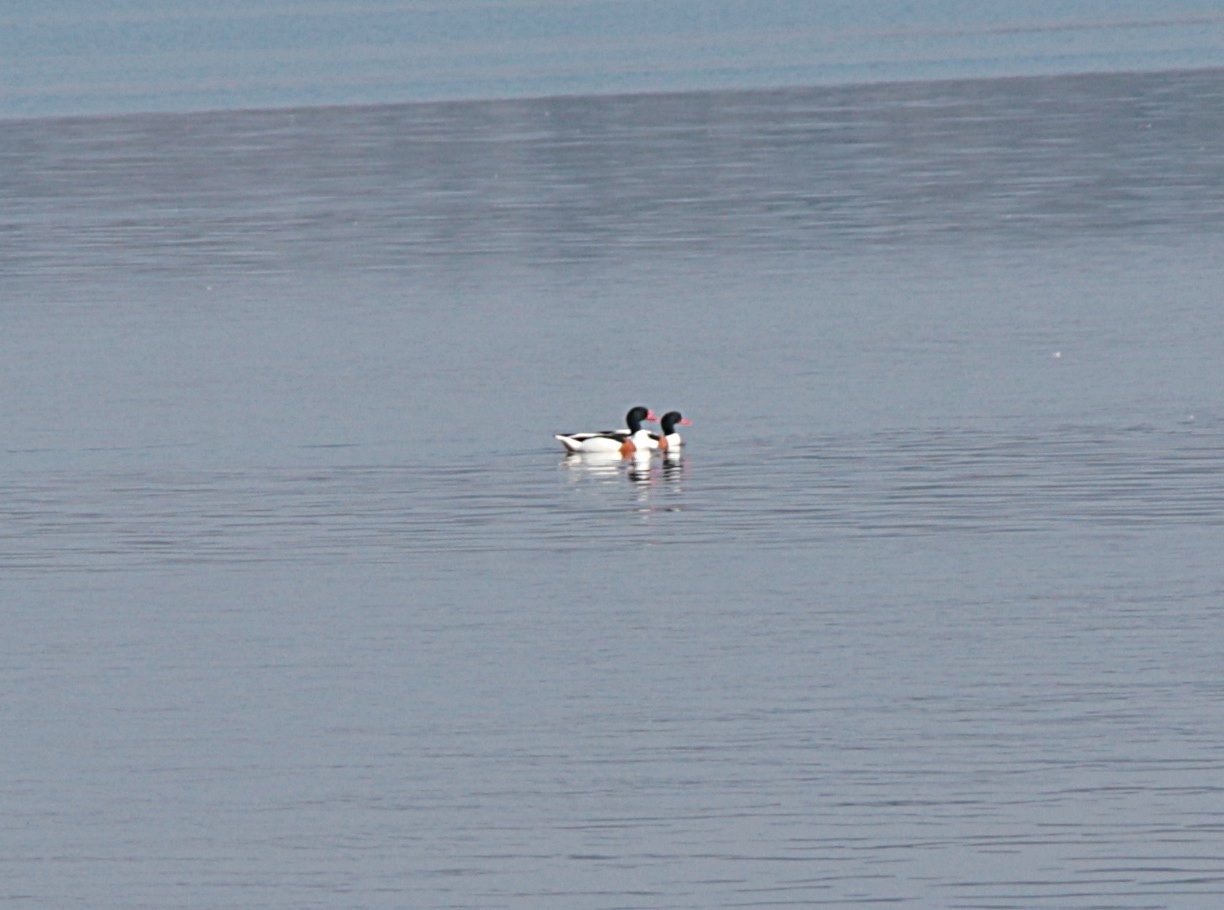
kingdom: Animalia
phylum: Chordata
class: Aves
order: Anseriformes
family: Anatidae
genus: Tadorna
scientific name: Tadorna tadorna
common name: Gravand
